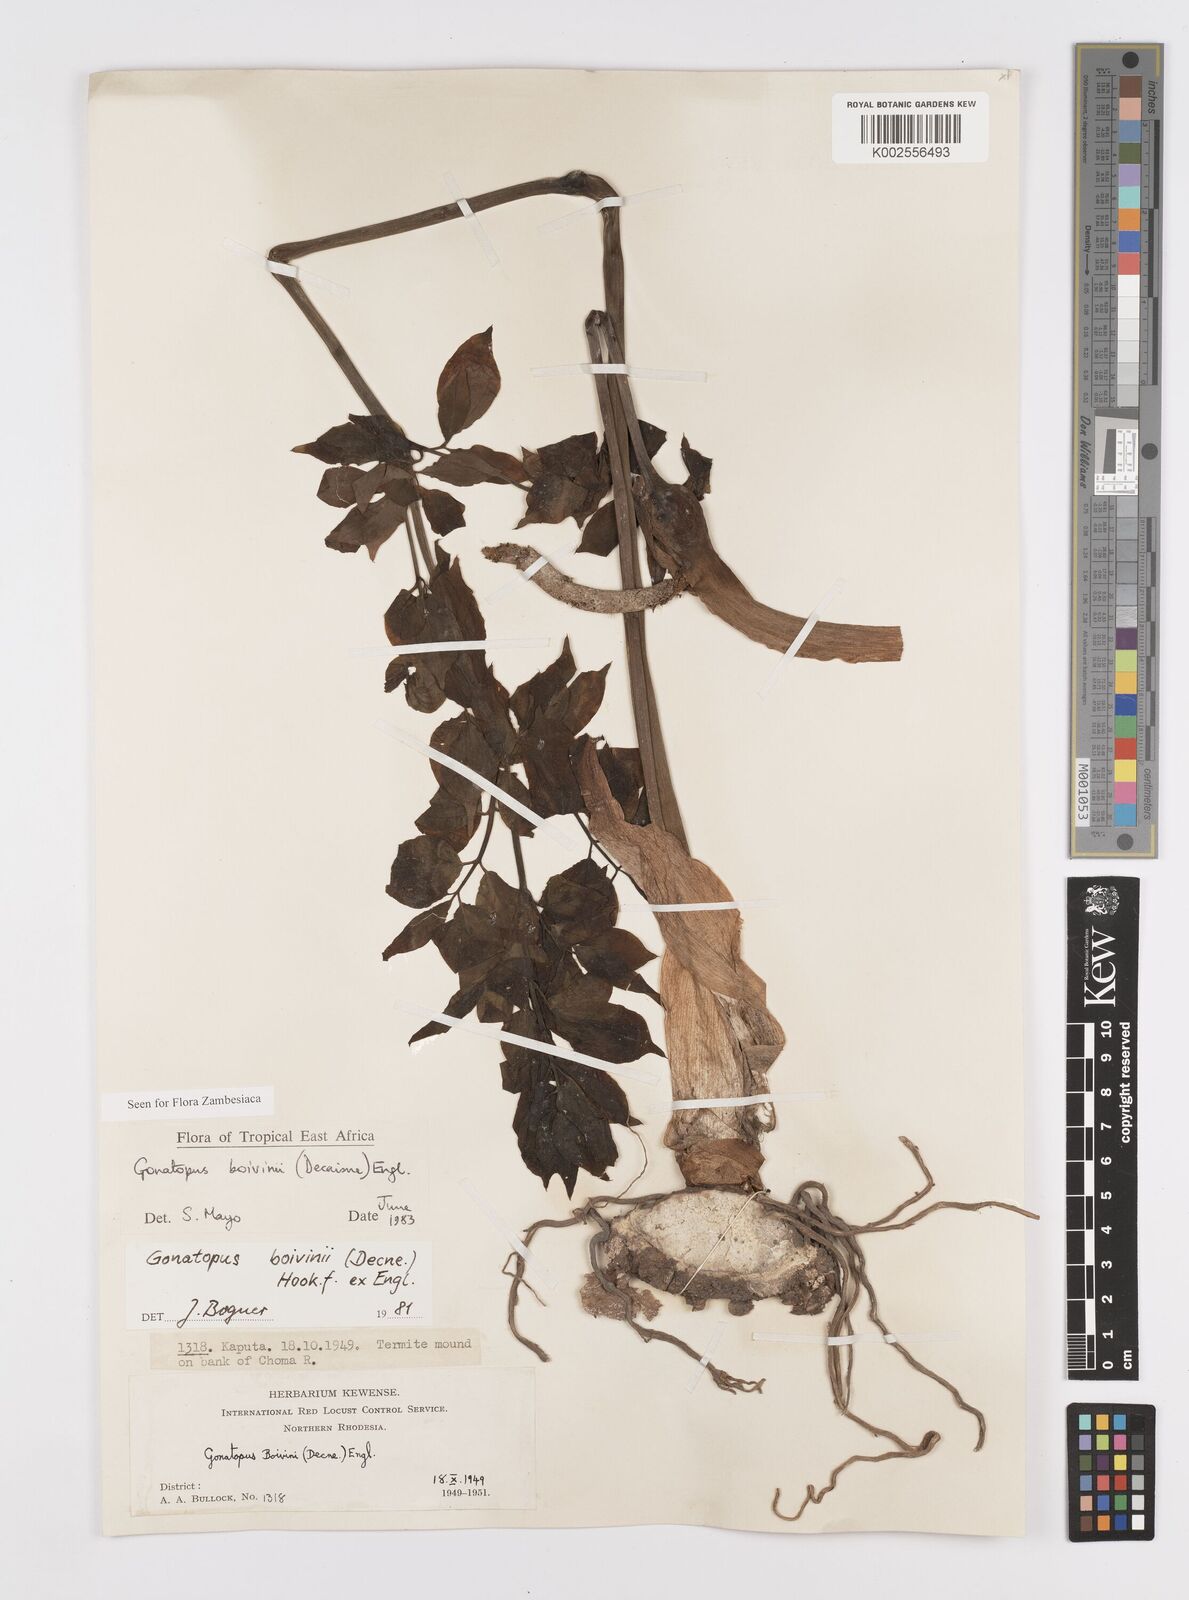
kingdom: Plantae
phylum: Tracheophyta
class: Liliopsida
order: Alismatales
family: Araceae
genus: Gonatopus
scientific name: Gonatopus boivinii
